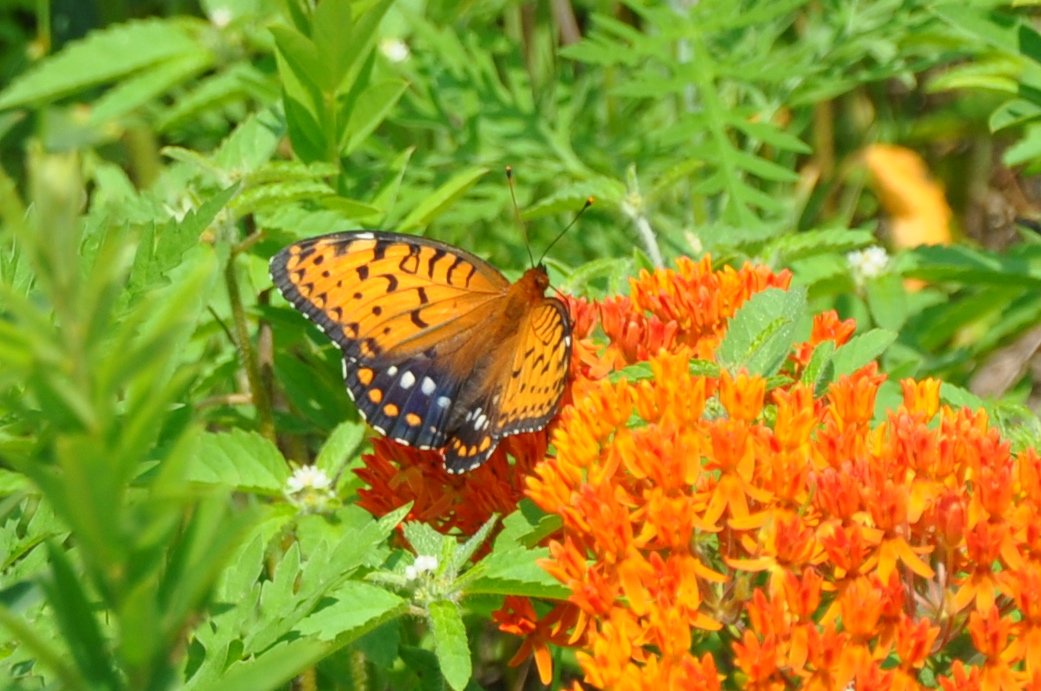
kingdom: Animalia
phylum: Arthropoda
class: Insecta
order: Lepidoptera
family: Nymphalidae
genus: Speyeria
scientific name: Speyeria idalia
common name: Regal Fritillary
